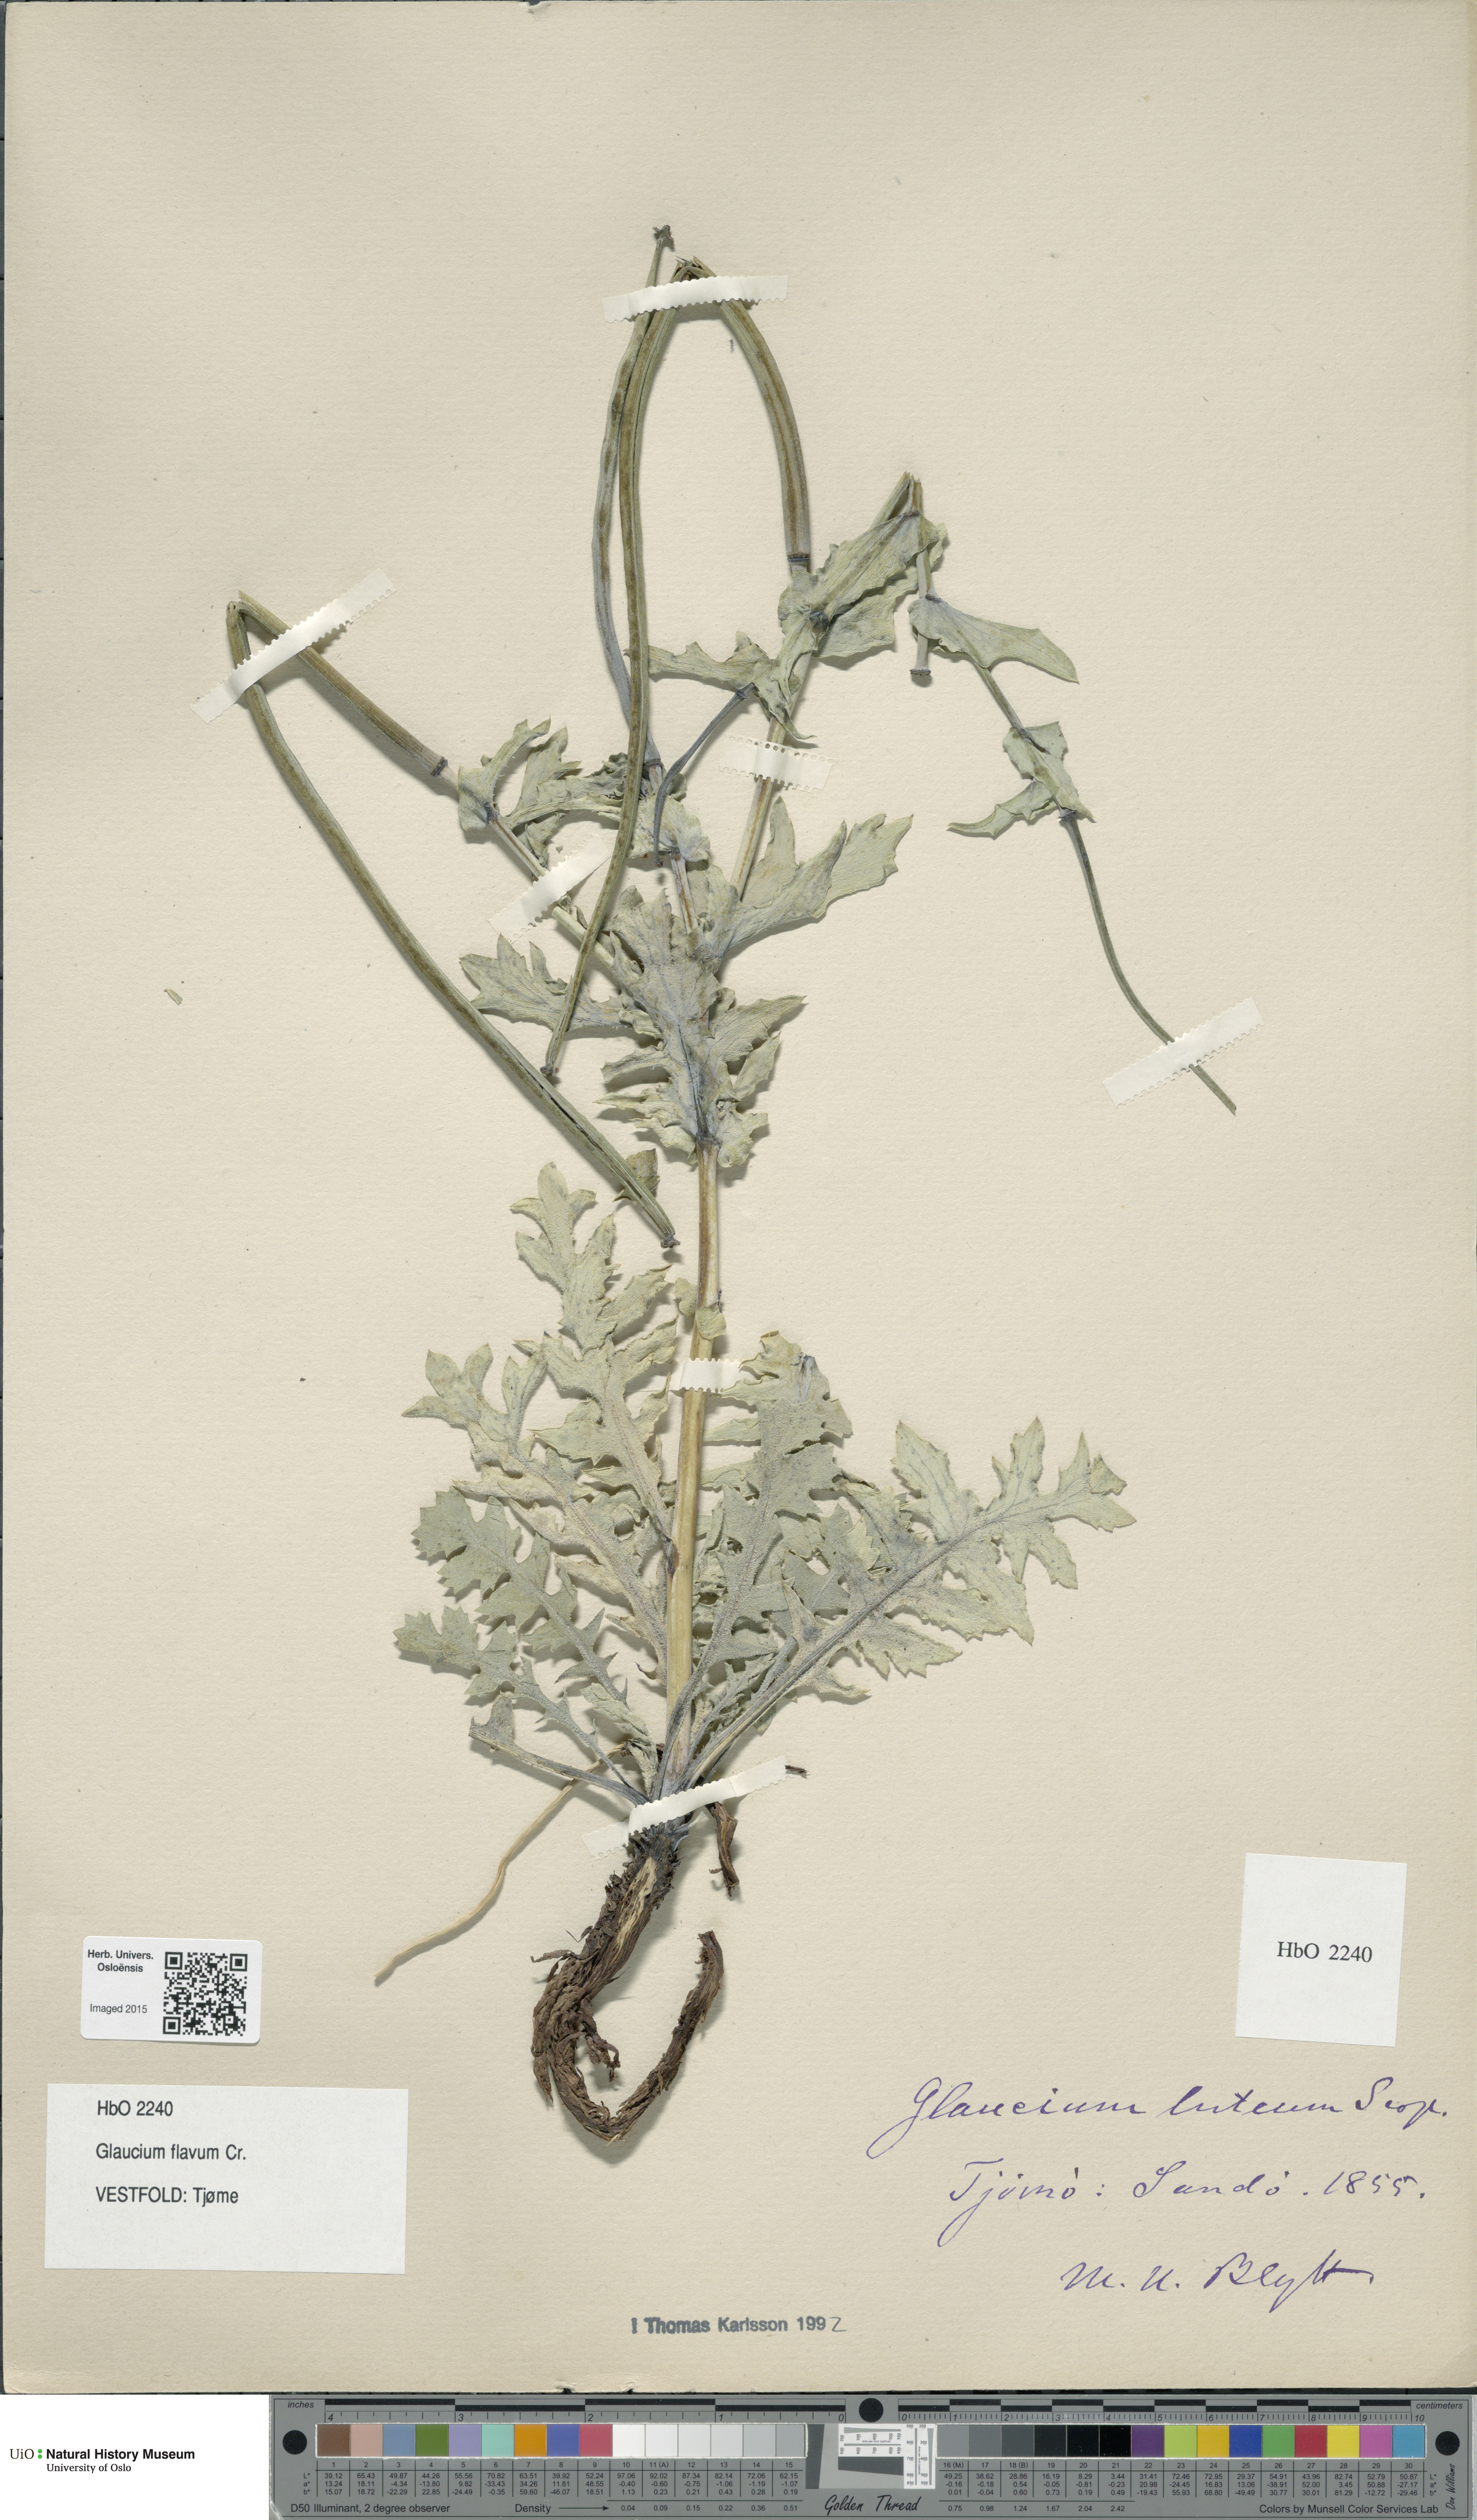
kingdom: Plantae
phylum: Tracheophyta
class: Magnoliopsida
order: Ranunculales
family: Papaveraceae
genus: Glaucium
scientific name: Glaucium flavum
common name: Yellow horned-poppy
